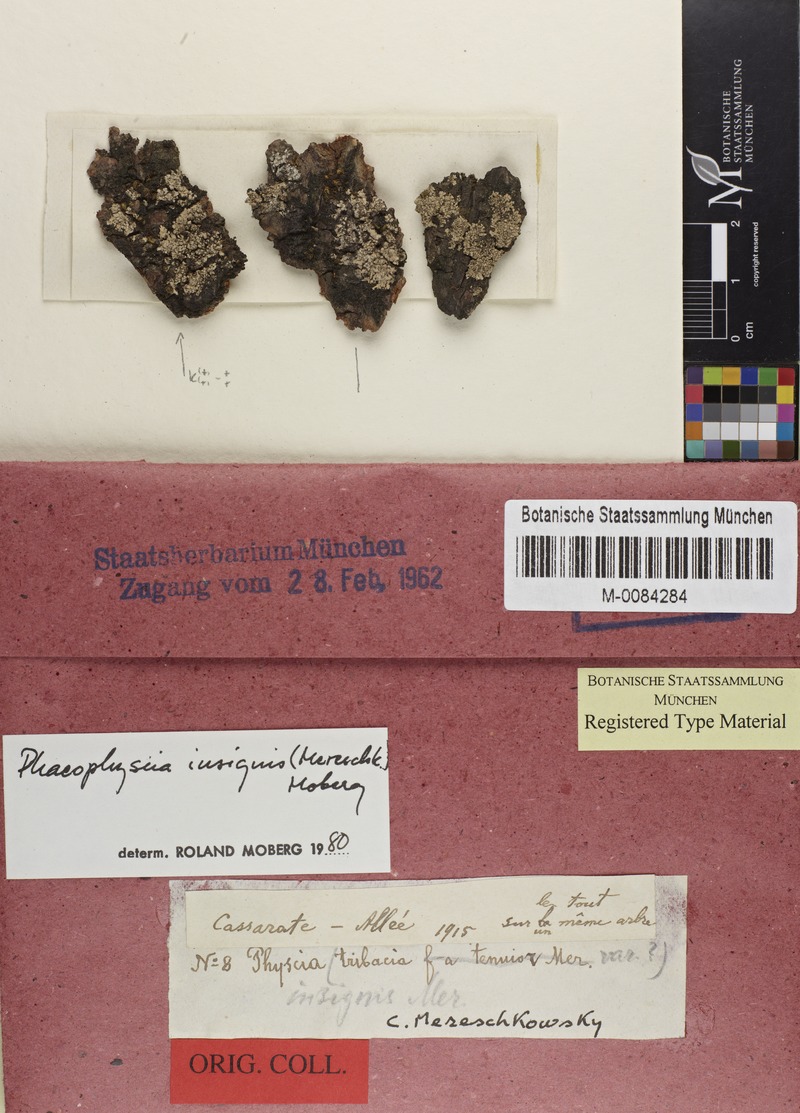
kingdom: Fungi
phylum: Ascomycota
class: Lecanoromycetes
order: Caliciales
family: Physciaceae
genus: Phaeophyscia
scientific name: Phaeophyscia insignis
